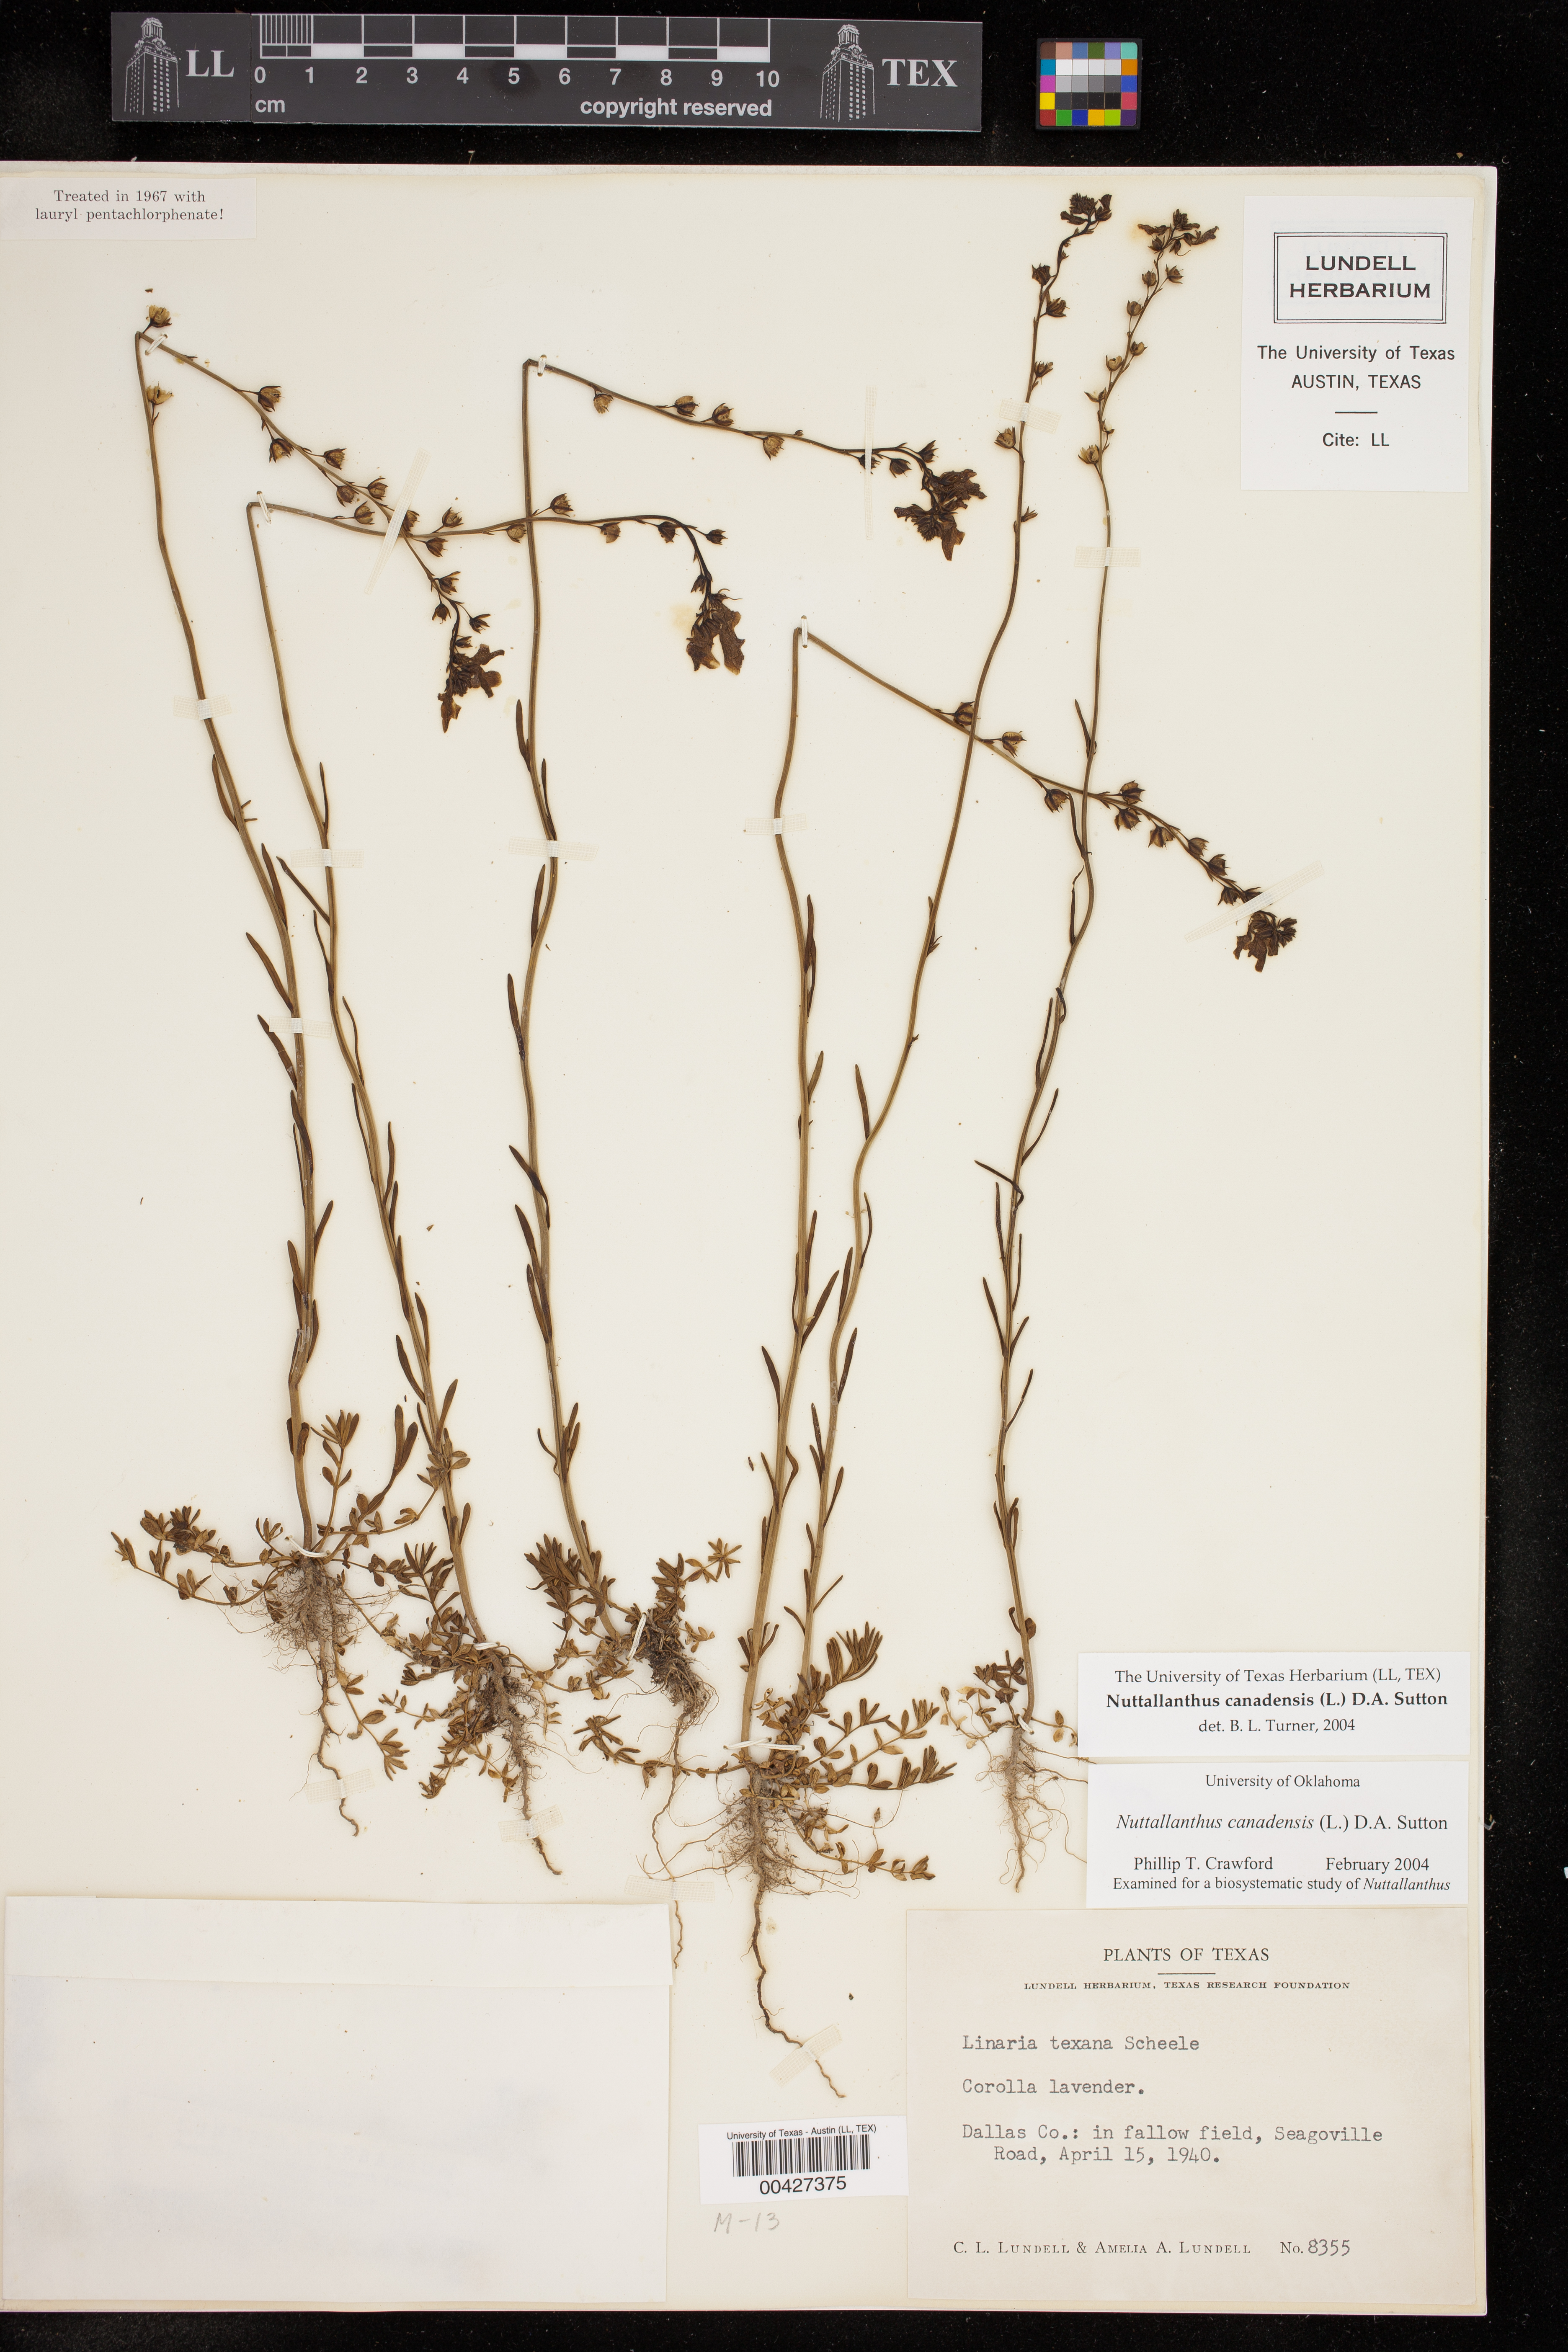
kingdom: Plantae
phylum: Tracheophyta
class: Magnoliopsida
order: Lamiales
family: Plantaginaceae
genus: Nuttallanthus
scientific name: Nuttallanthus canadensis
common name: Blue toadflax
